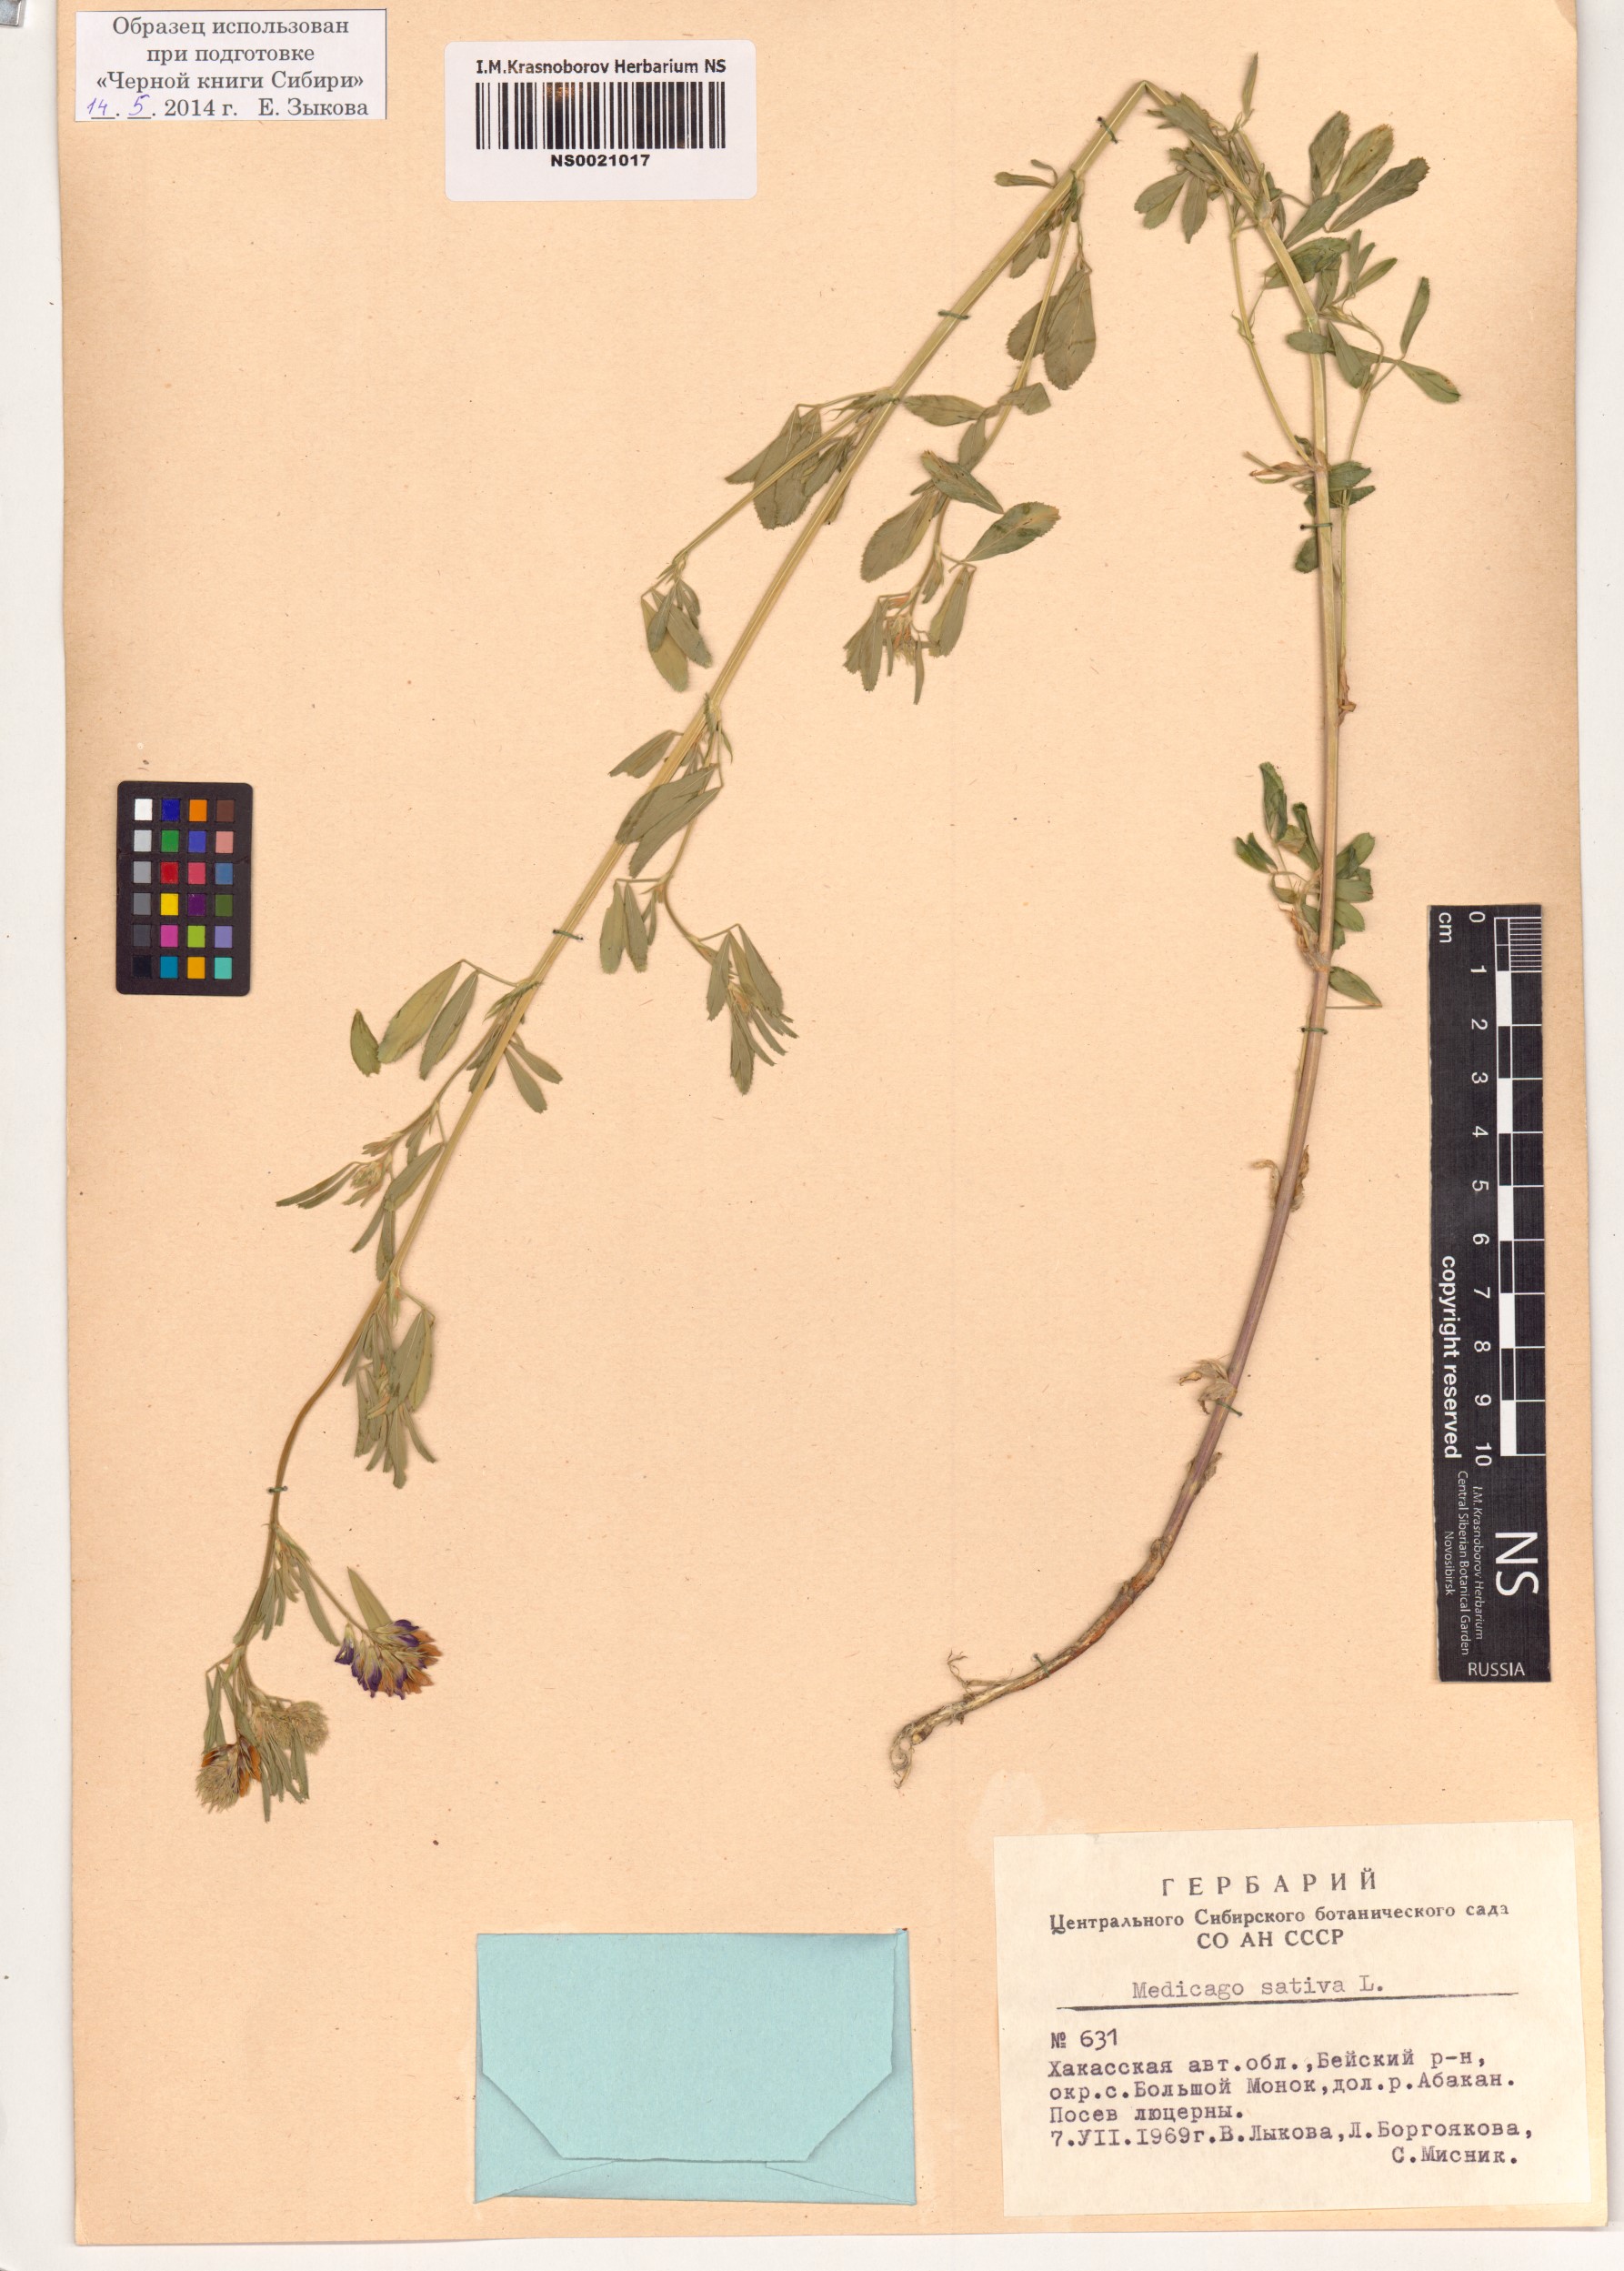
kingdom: Plantae
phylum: Tracheophyta
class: Magnoliopsida
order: Fabales
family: Fabaceae
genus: Medicago
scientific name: Medicago sativa
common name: Alfalfa
